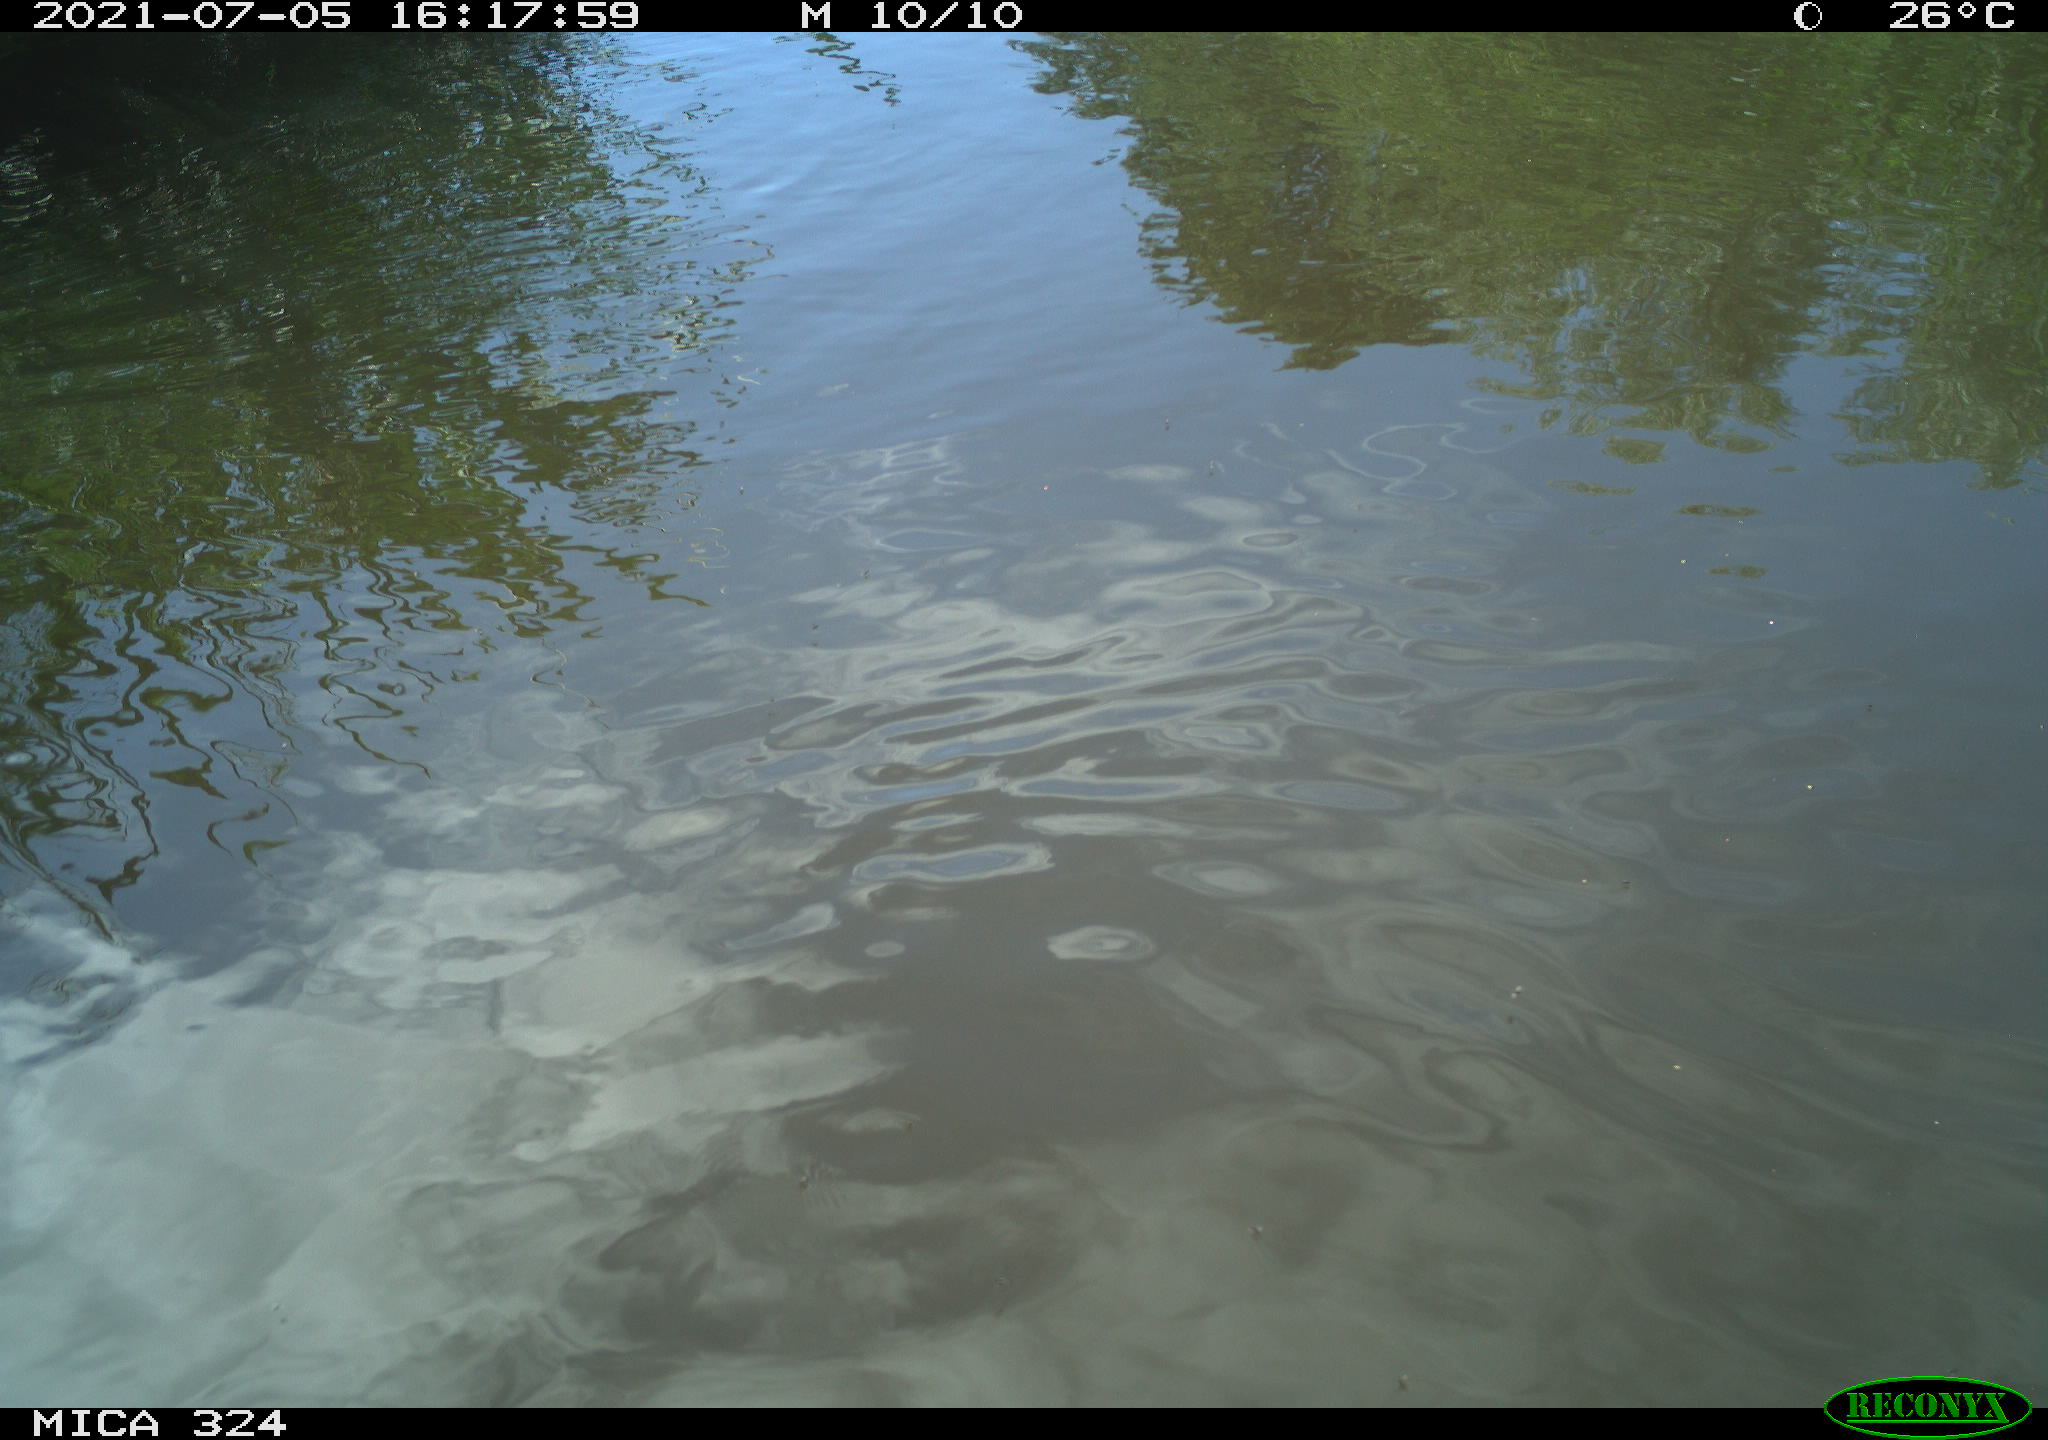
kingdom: Animalia
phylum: Chordata
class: Aves
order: Gruiformes
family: Rallidae
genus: Gallinula
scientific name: Gallinula chloropus
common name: Common moorhen
